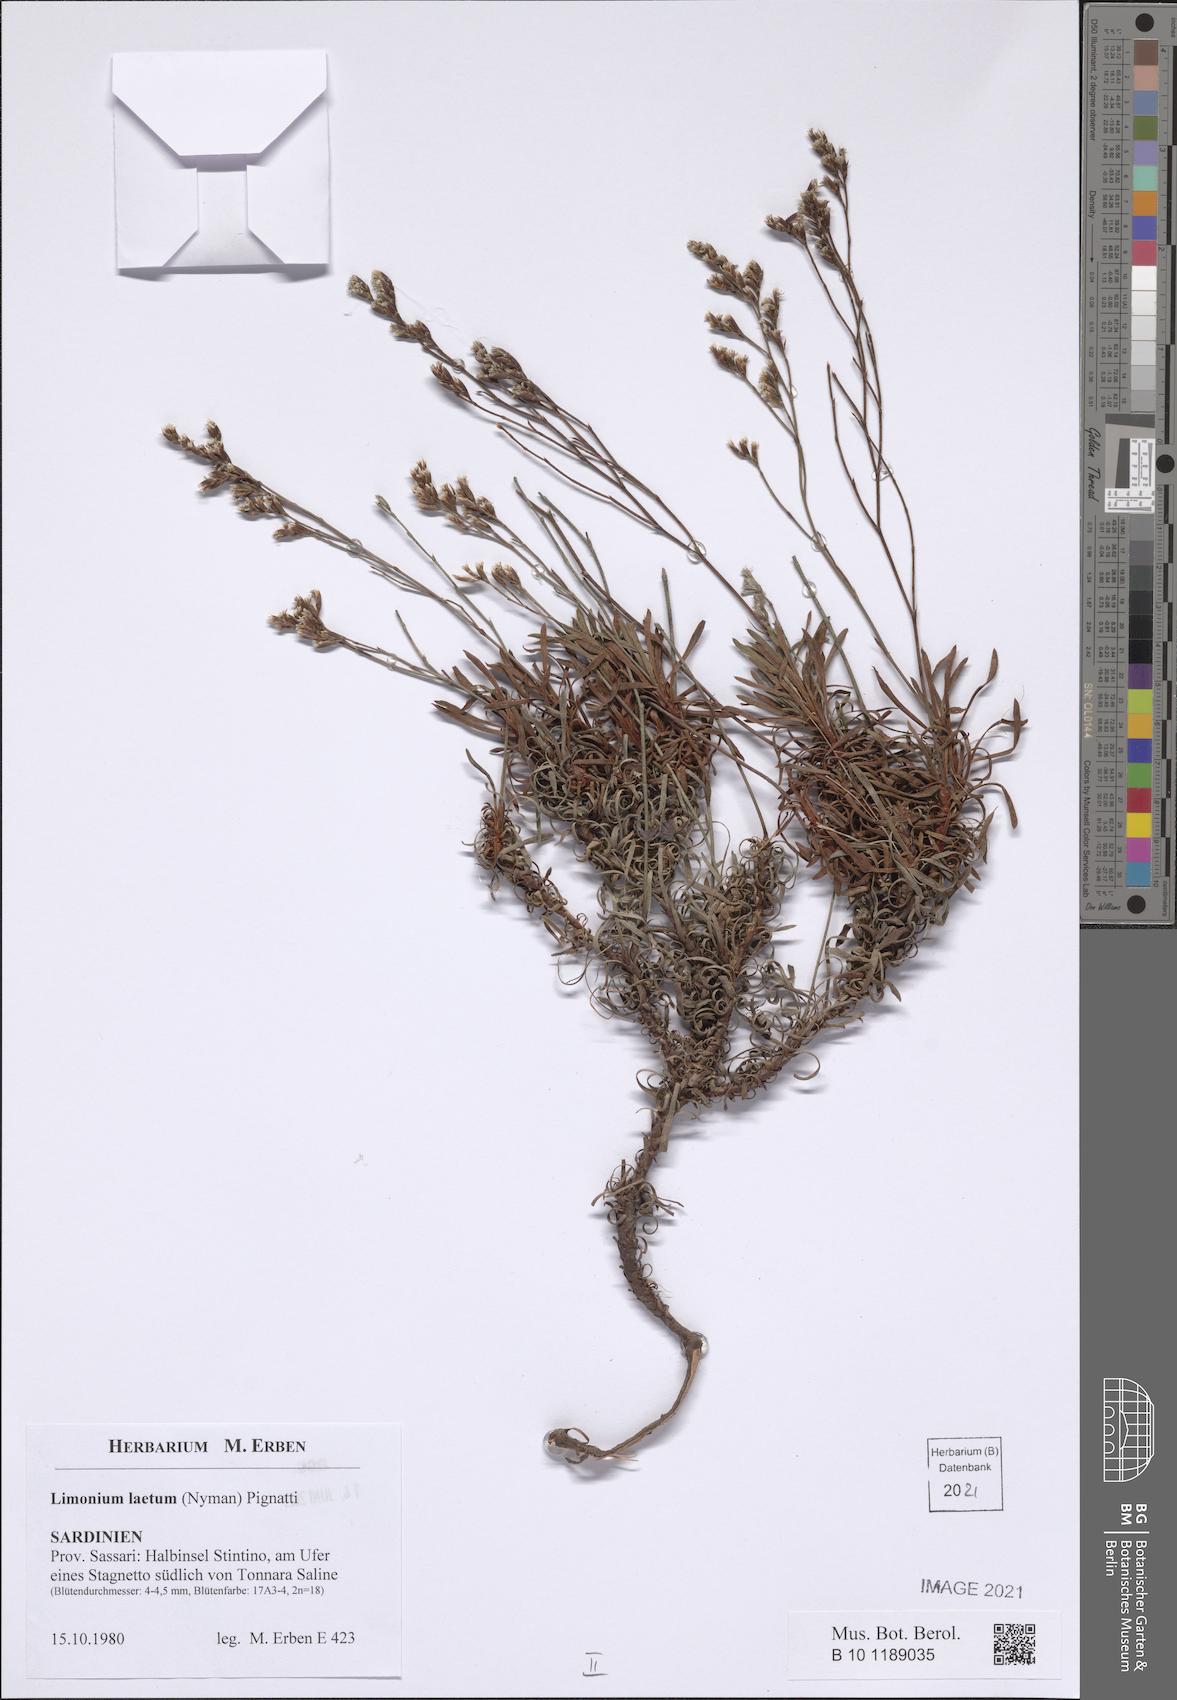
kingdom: Plantae
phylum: Tracheophyta
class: Magnoliopsida
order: Caryophyllales
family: Plumbaginaceae
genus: Limonium
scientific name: Limonium laetum
